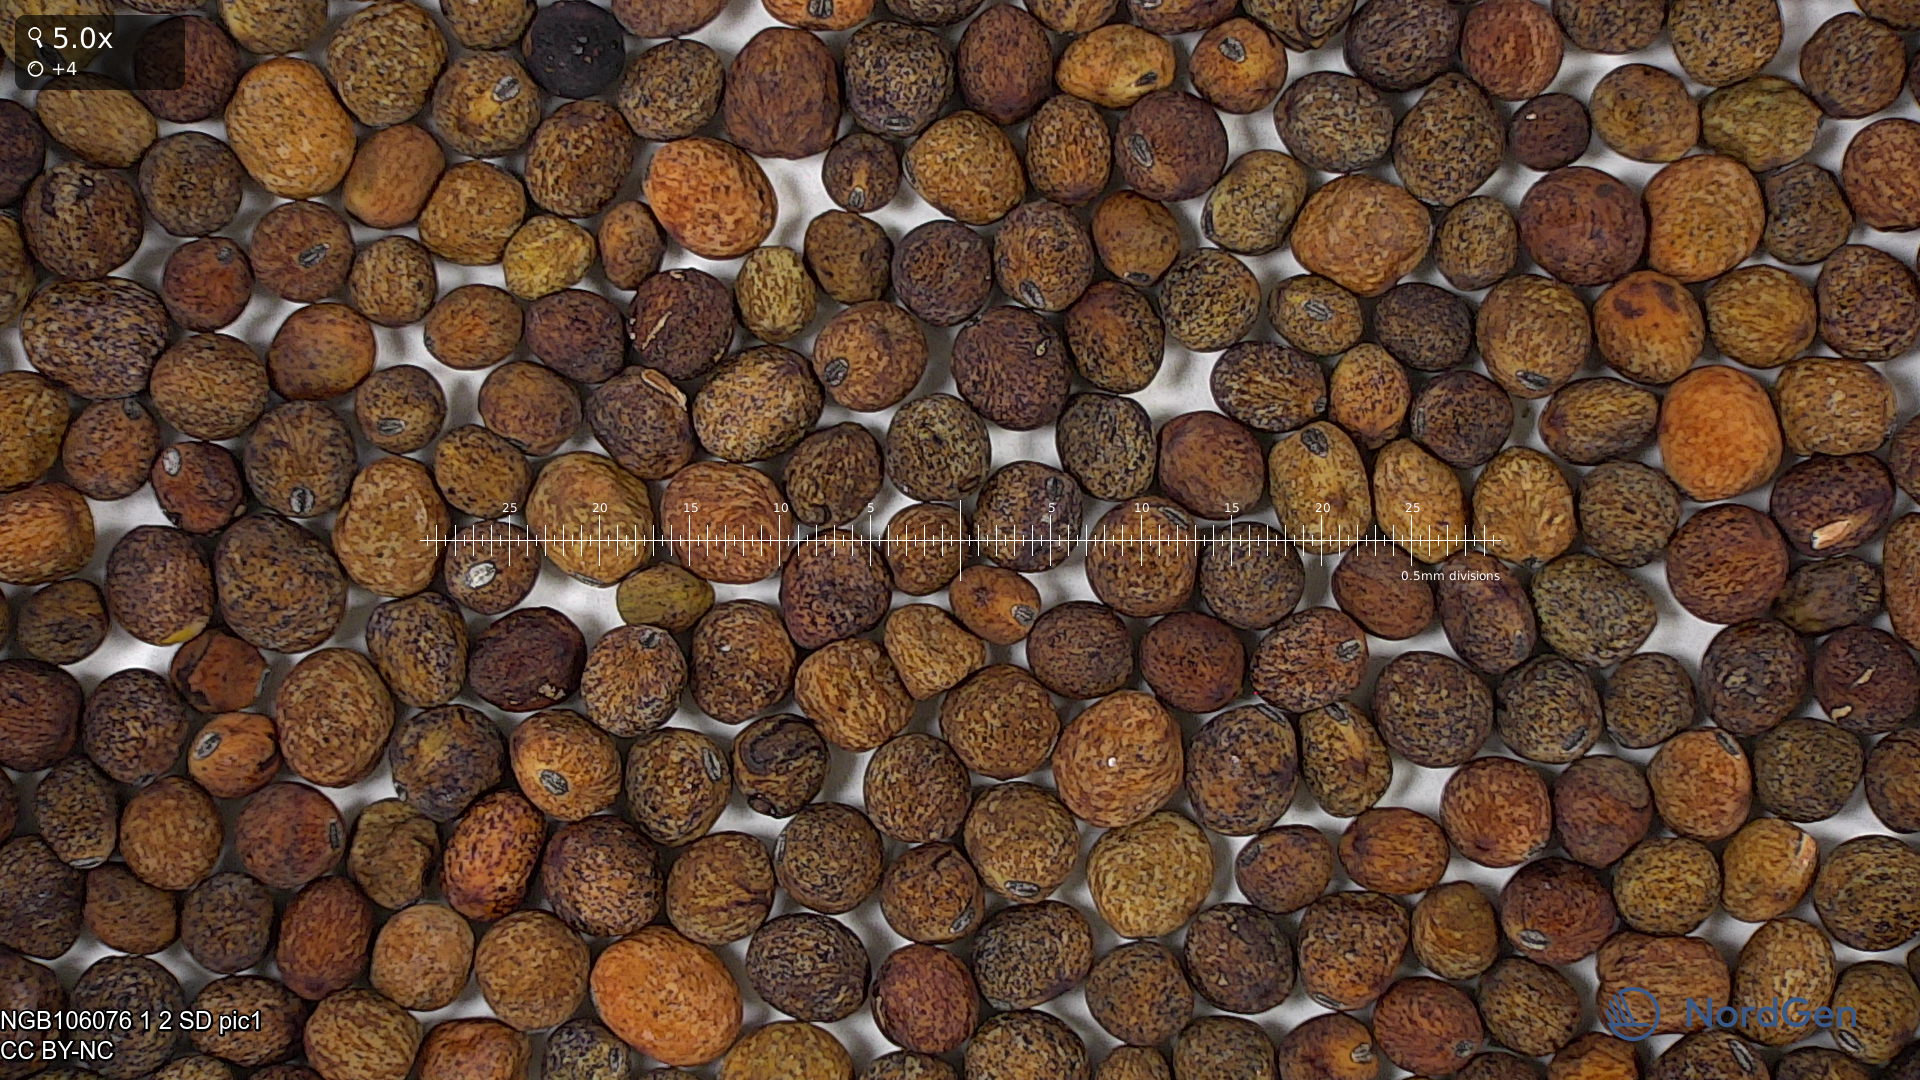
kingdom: Plantae
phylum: Tracheophyta
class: Magnoliopsida
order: Fabales
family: Fabaceae
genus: Lathyrus
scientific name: Lathyrus oleraceus
